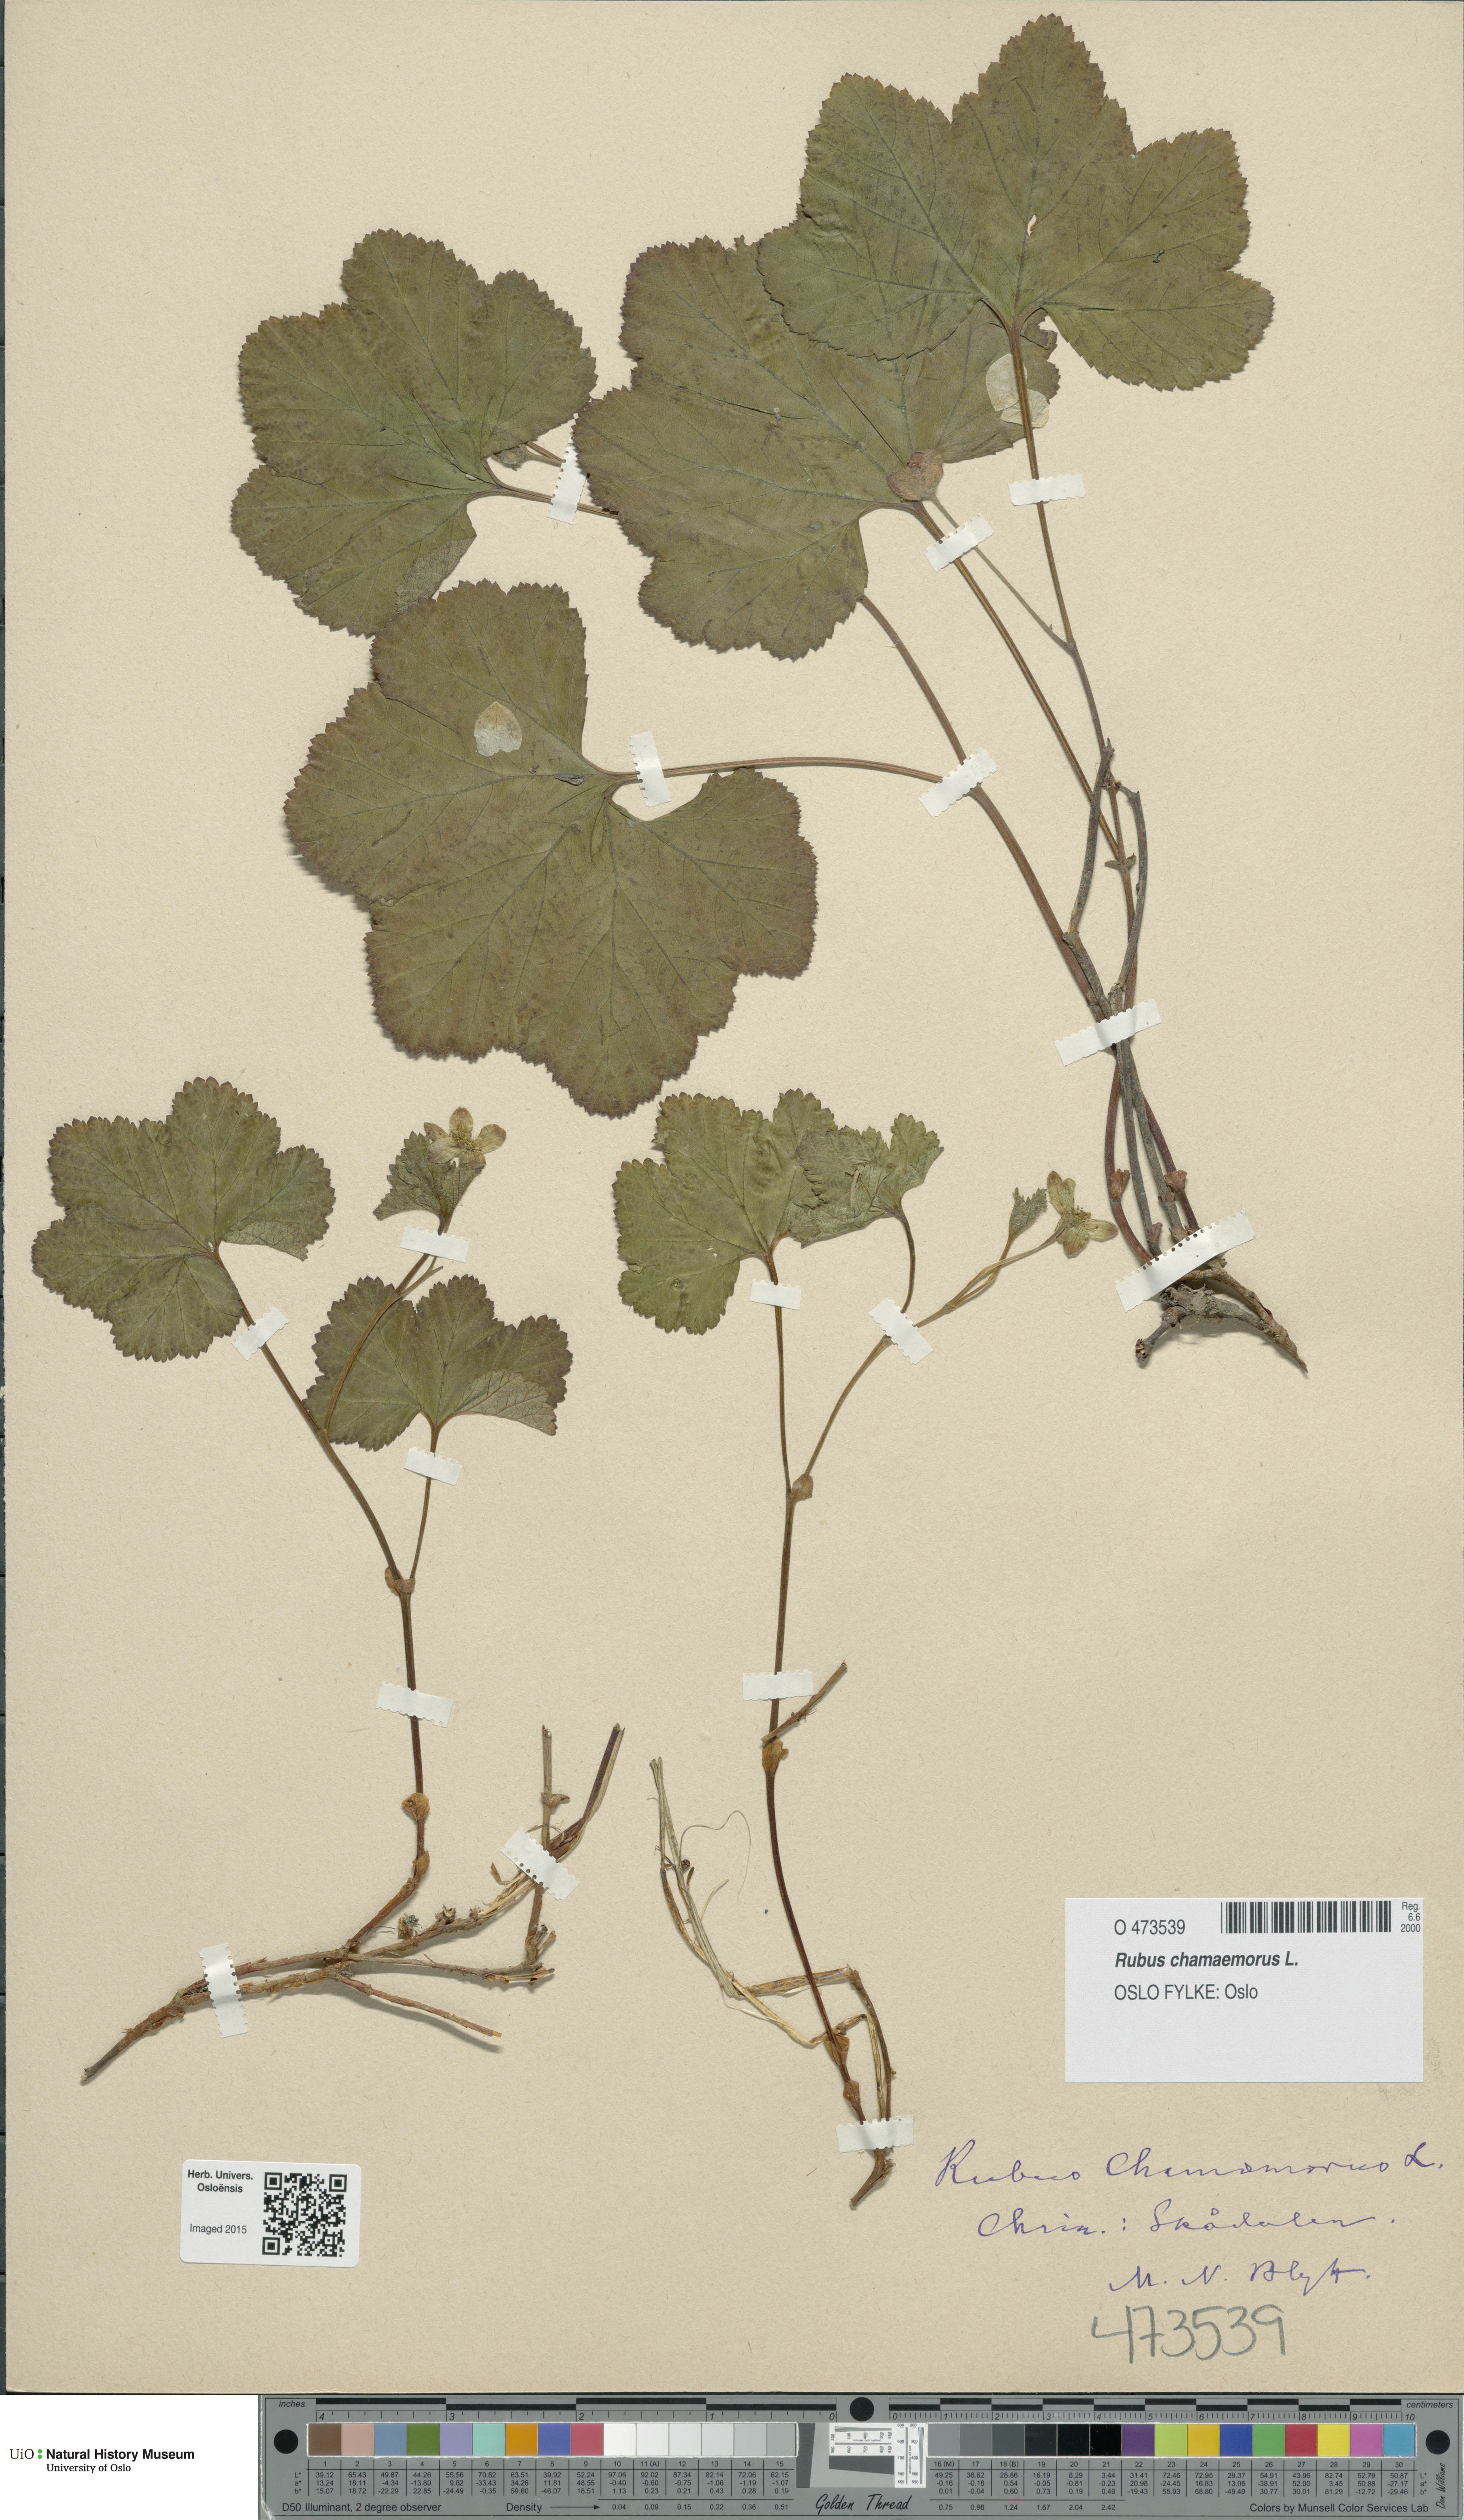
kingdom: Plantae
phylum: Tracheophyta
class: Magnoliopsida
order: Rosales
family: Rosaceae
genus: Rubus
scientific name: Rubus chamaemorus
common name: Cloudberry
